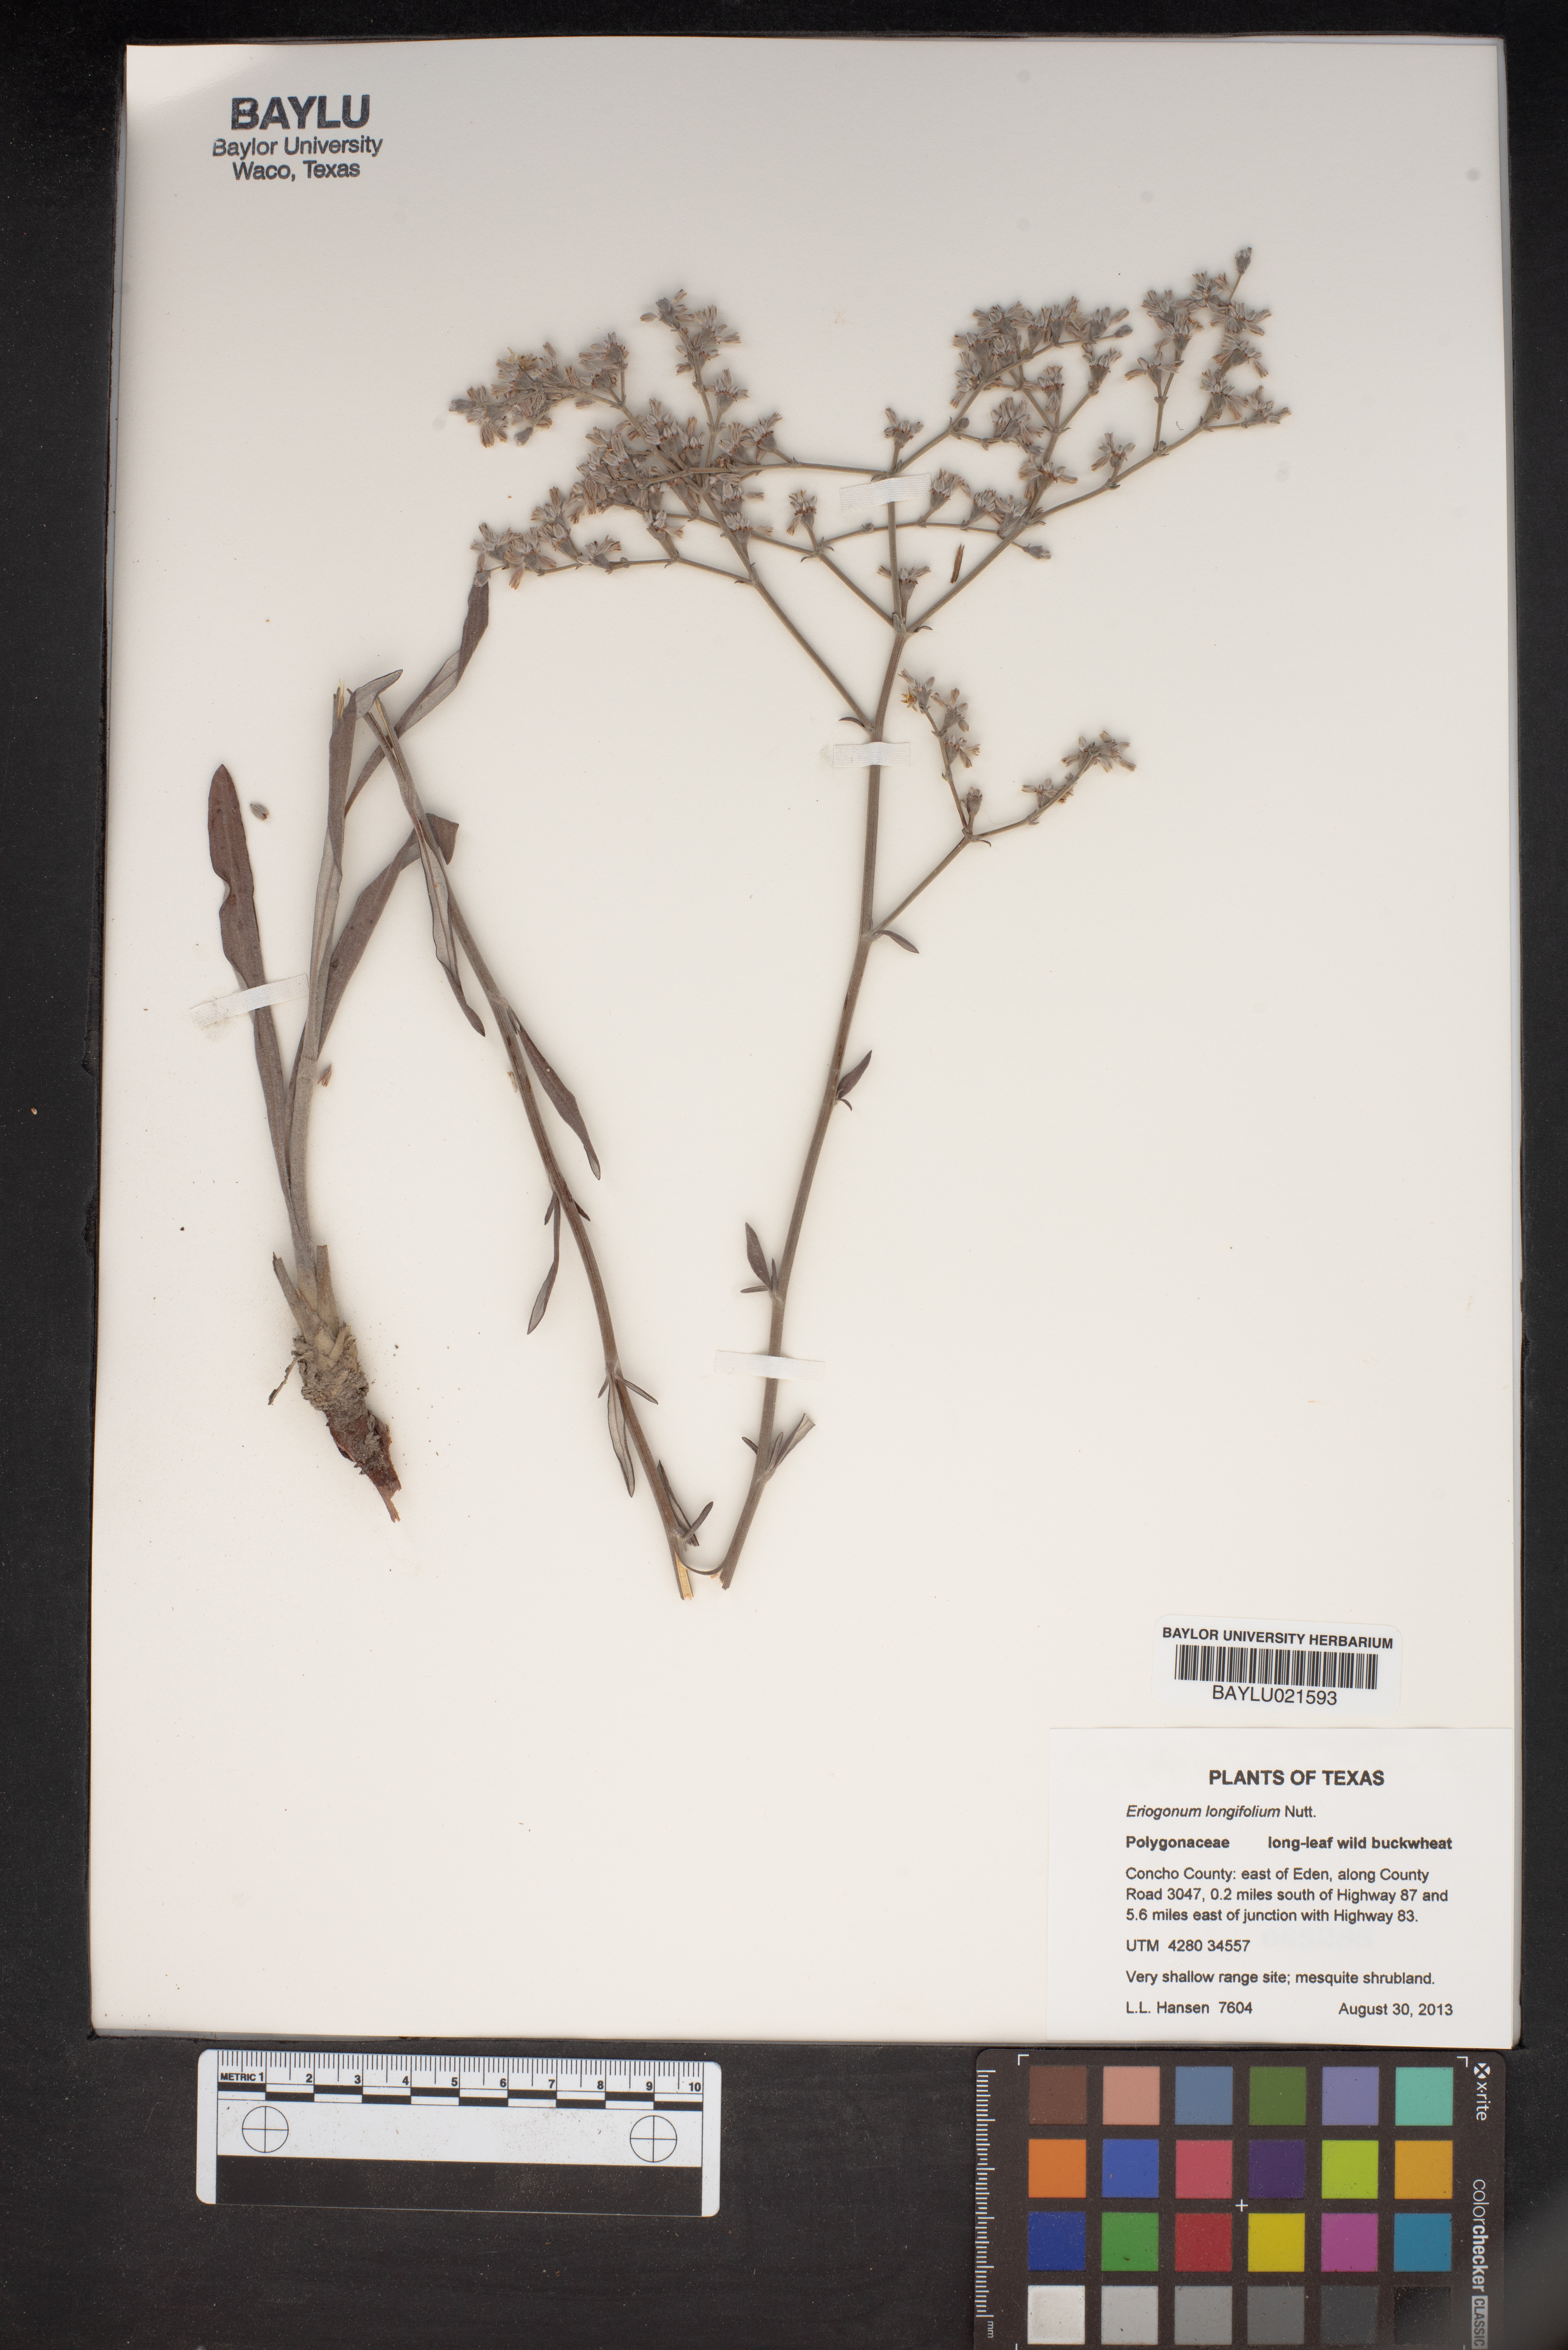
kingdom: Plantae
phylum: Tracheophyta
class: Magnoliopsida
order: Caryophyllales
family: Polygonaceae
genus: Eriogonum
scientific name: Eriogonum longifolium
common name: Longleaf wild buckwheat
